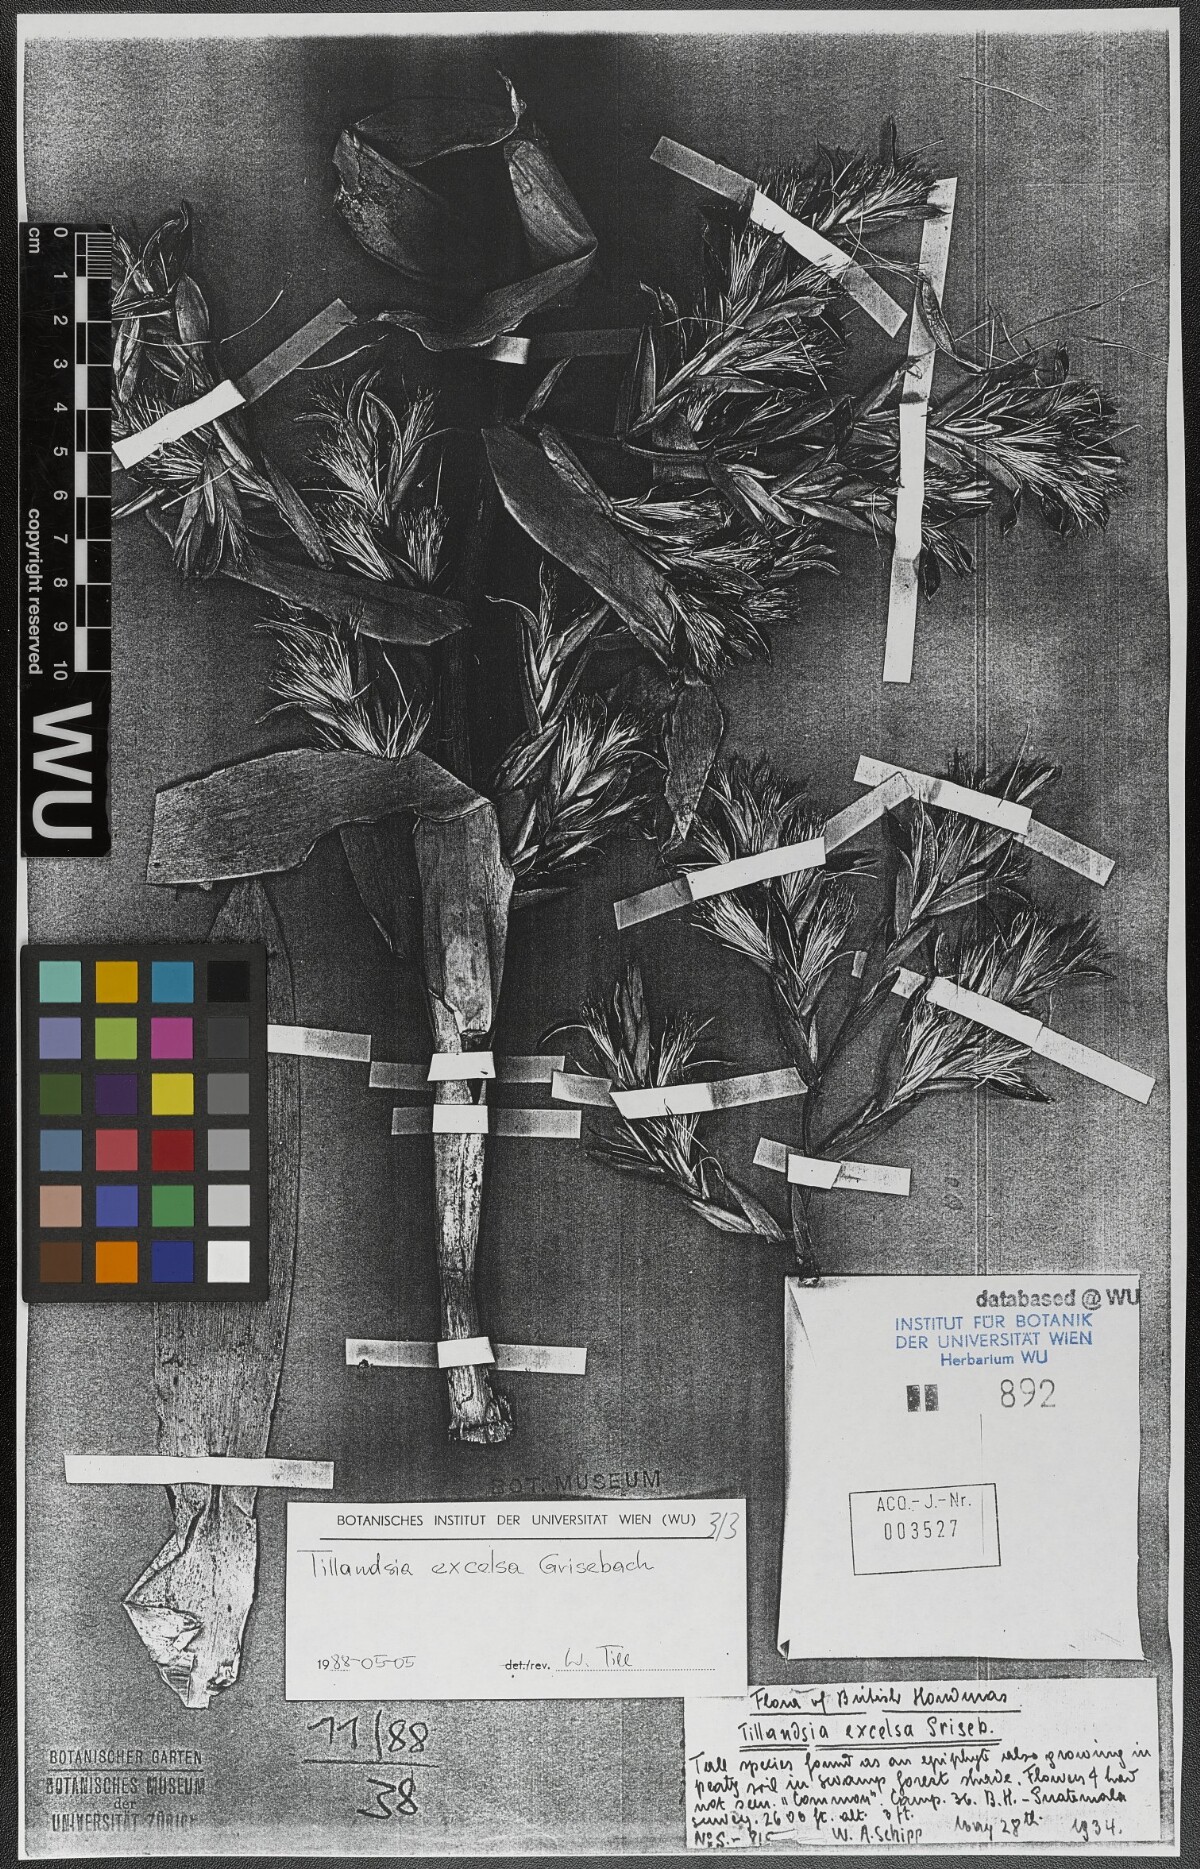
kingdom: Plantae
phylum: Tracheophyta
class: Liliopsida
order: Poales
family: Bromeliaceae
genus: Tillandsia
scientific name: Tillandsia excelsa
